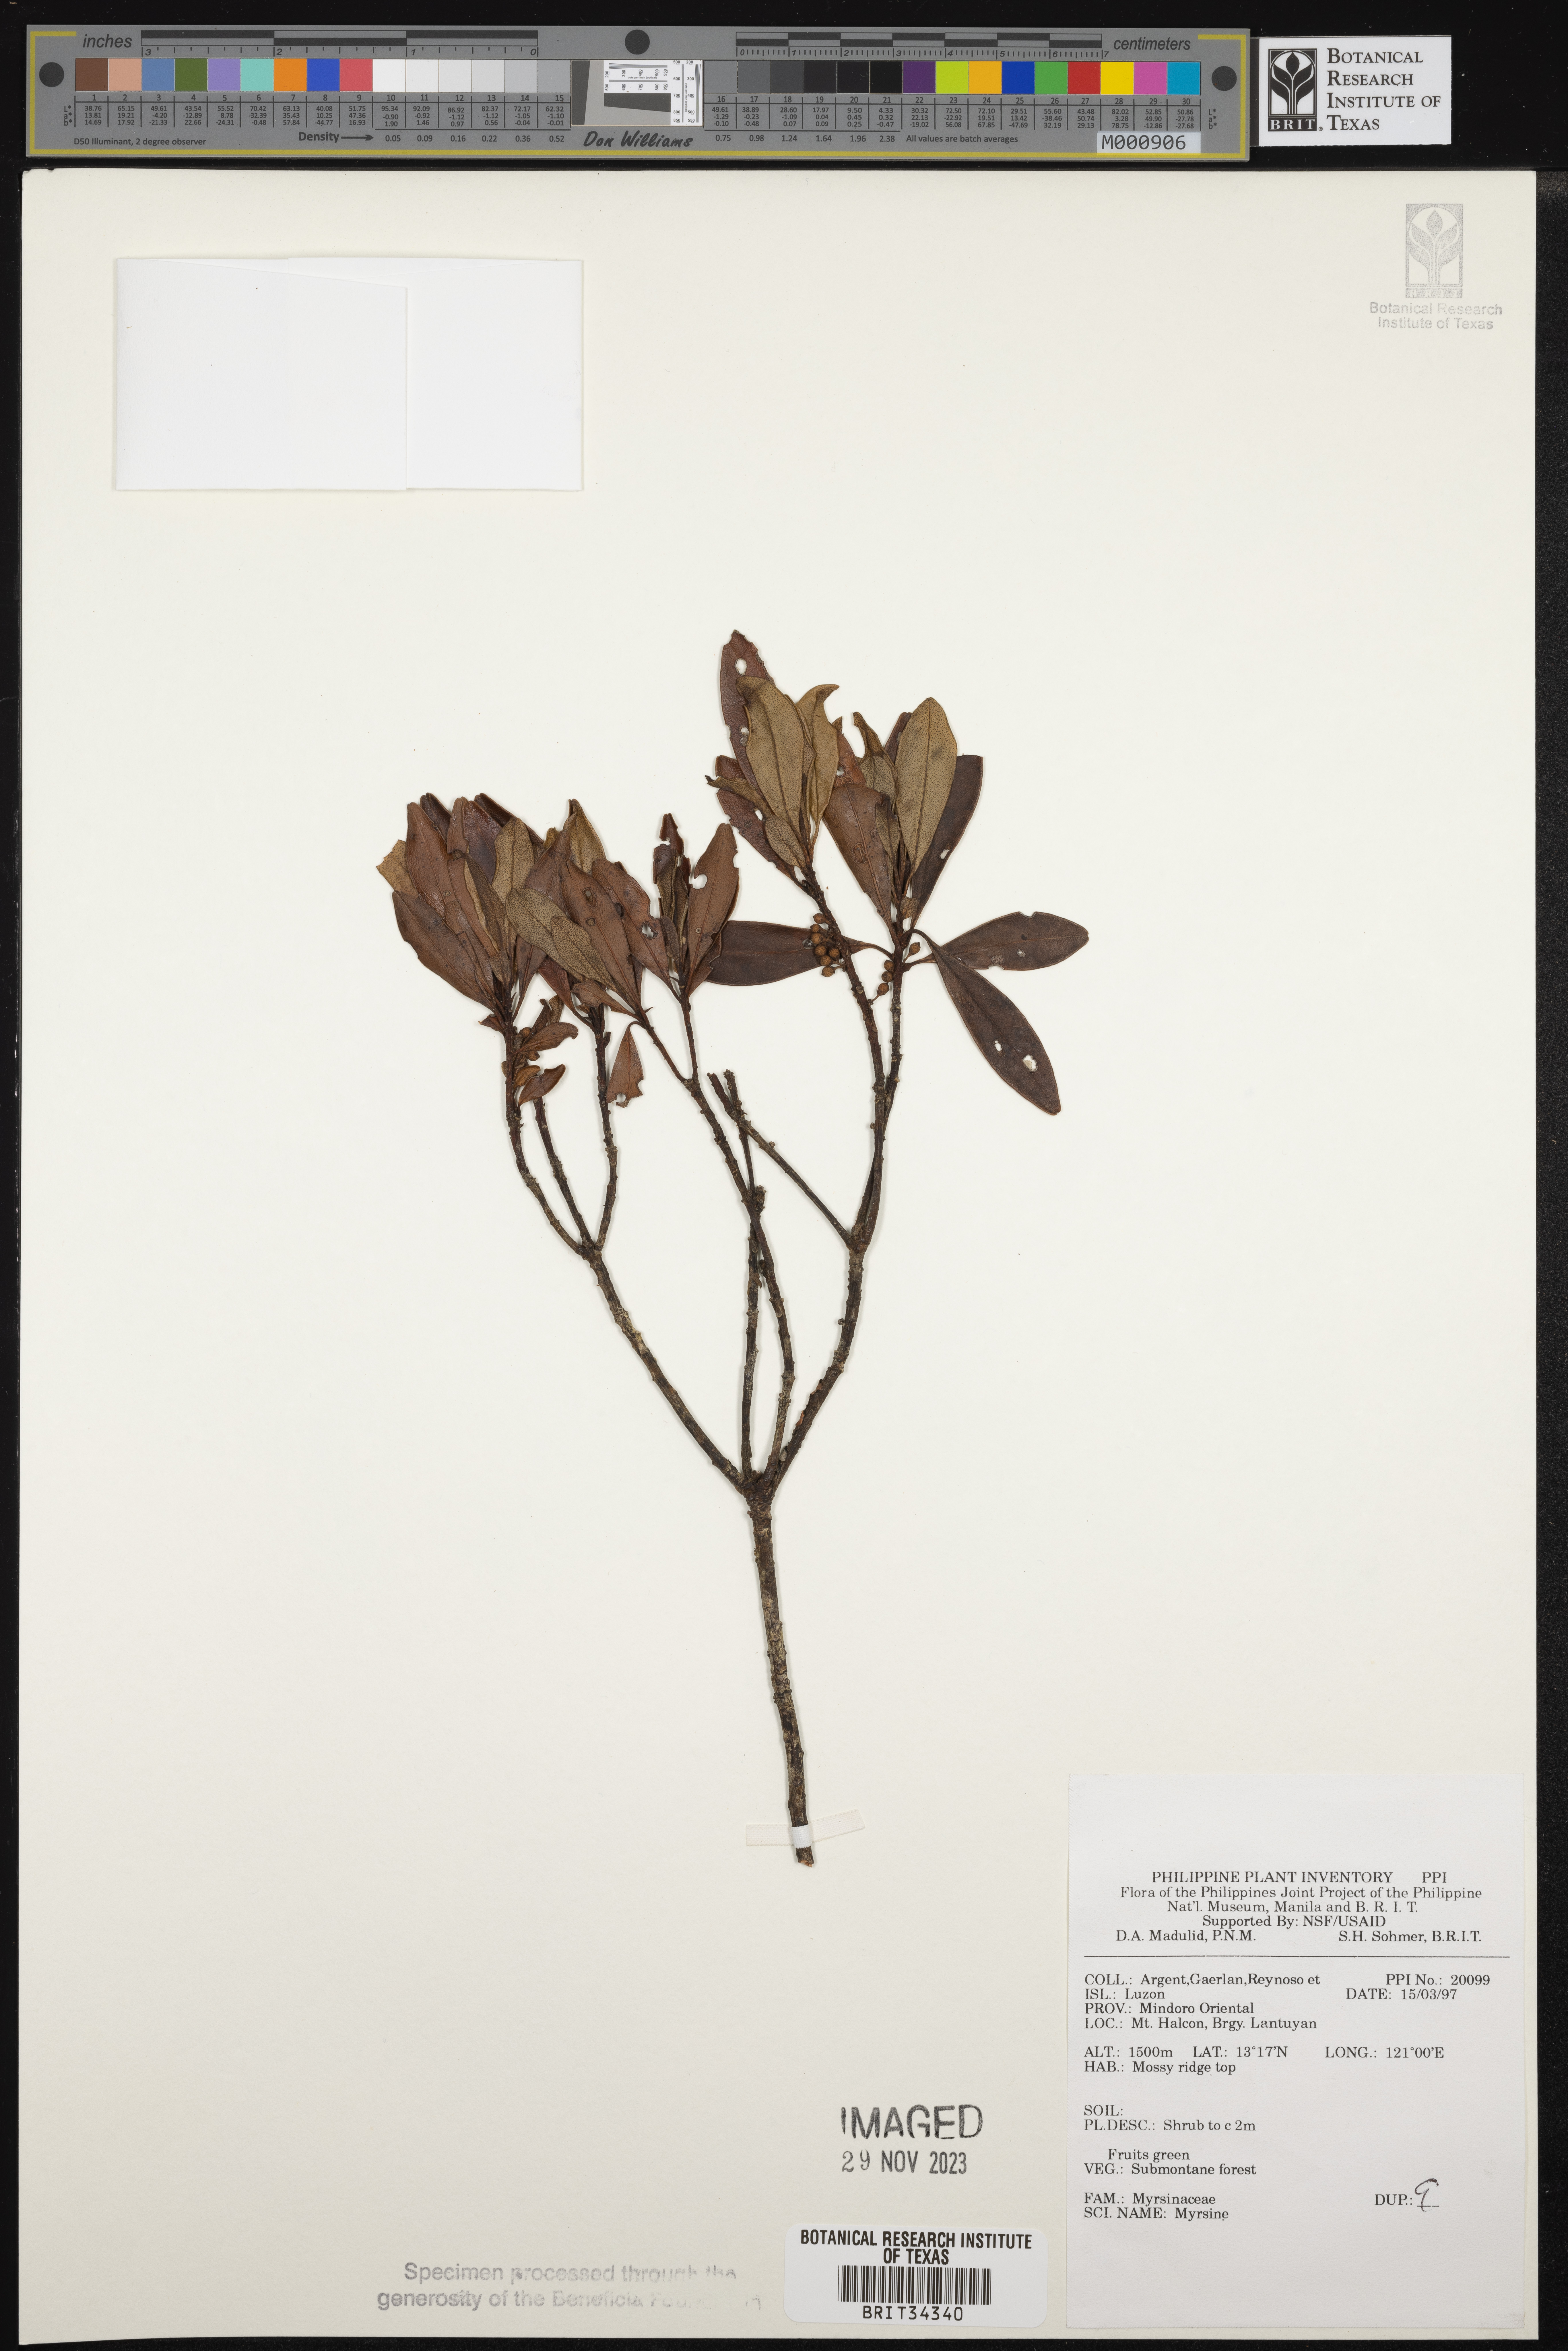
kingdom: Plantae
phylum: Tracheophyta
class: Magnoliopsida
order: Ericales
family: Primulaceae
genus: Myrsine
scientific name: Myrsine
